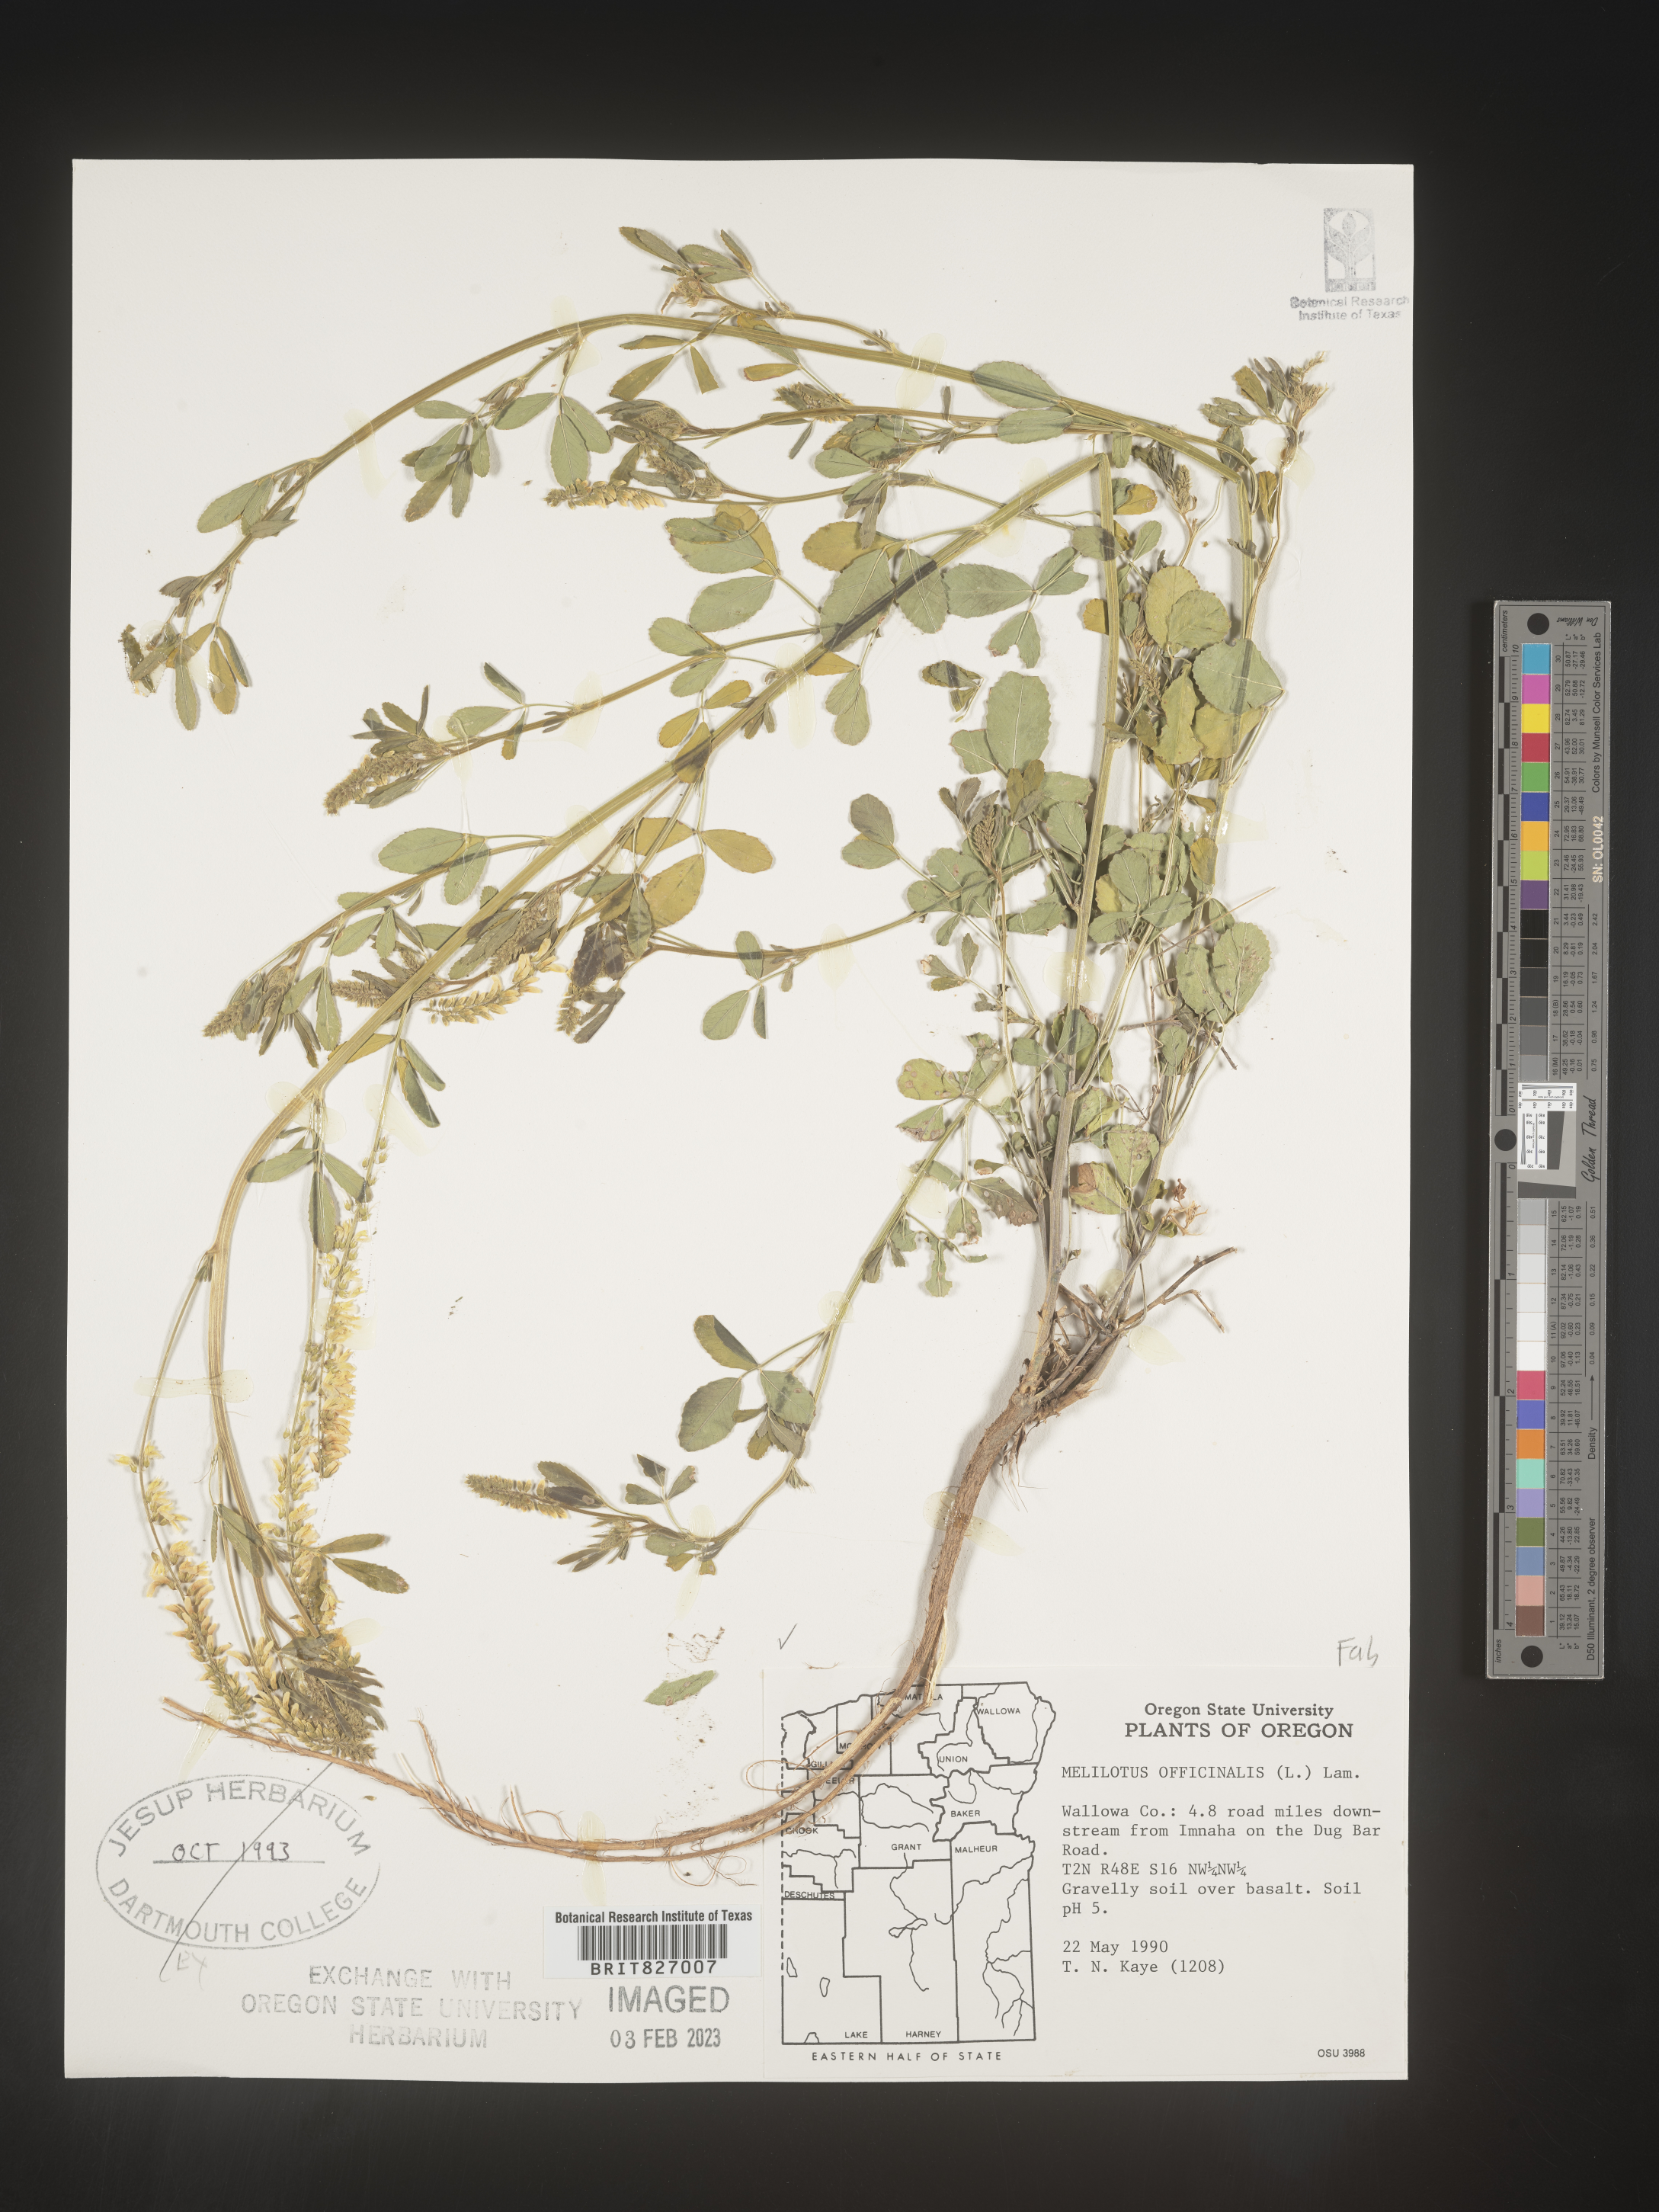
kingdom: Plantae
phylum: Tracheophyta
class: Magnoliopsida
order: Fabales
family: Fabaceae
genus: Melilotus
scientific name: Melilotus officinalis
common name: Sweetclover
